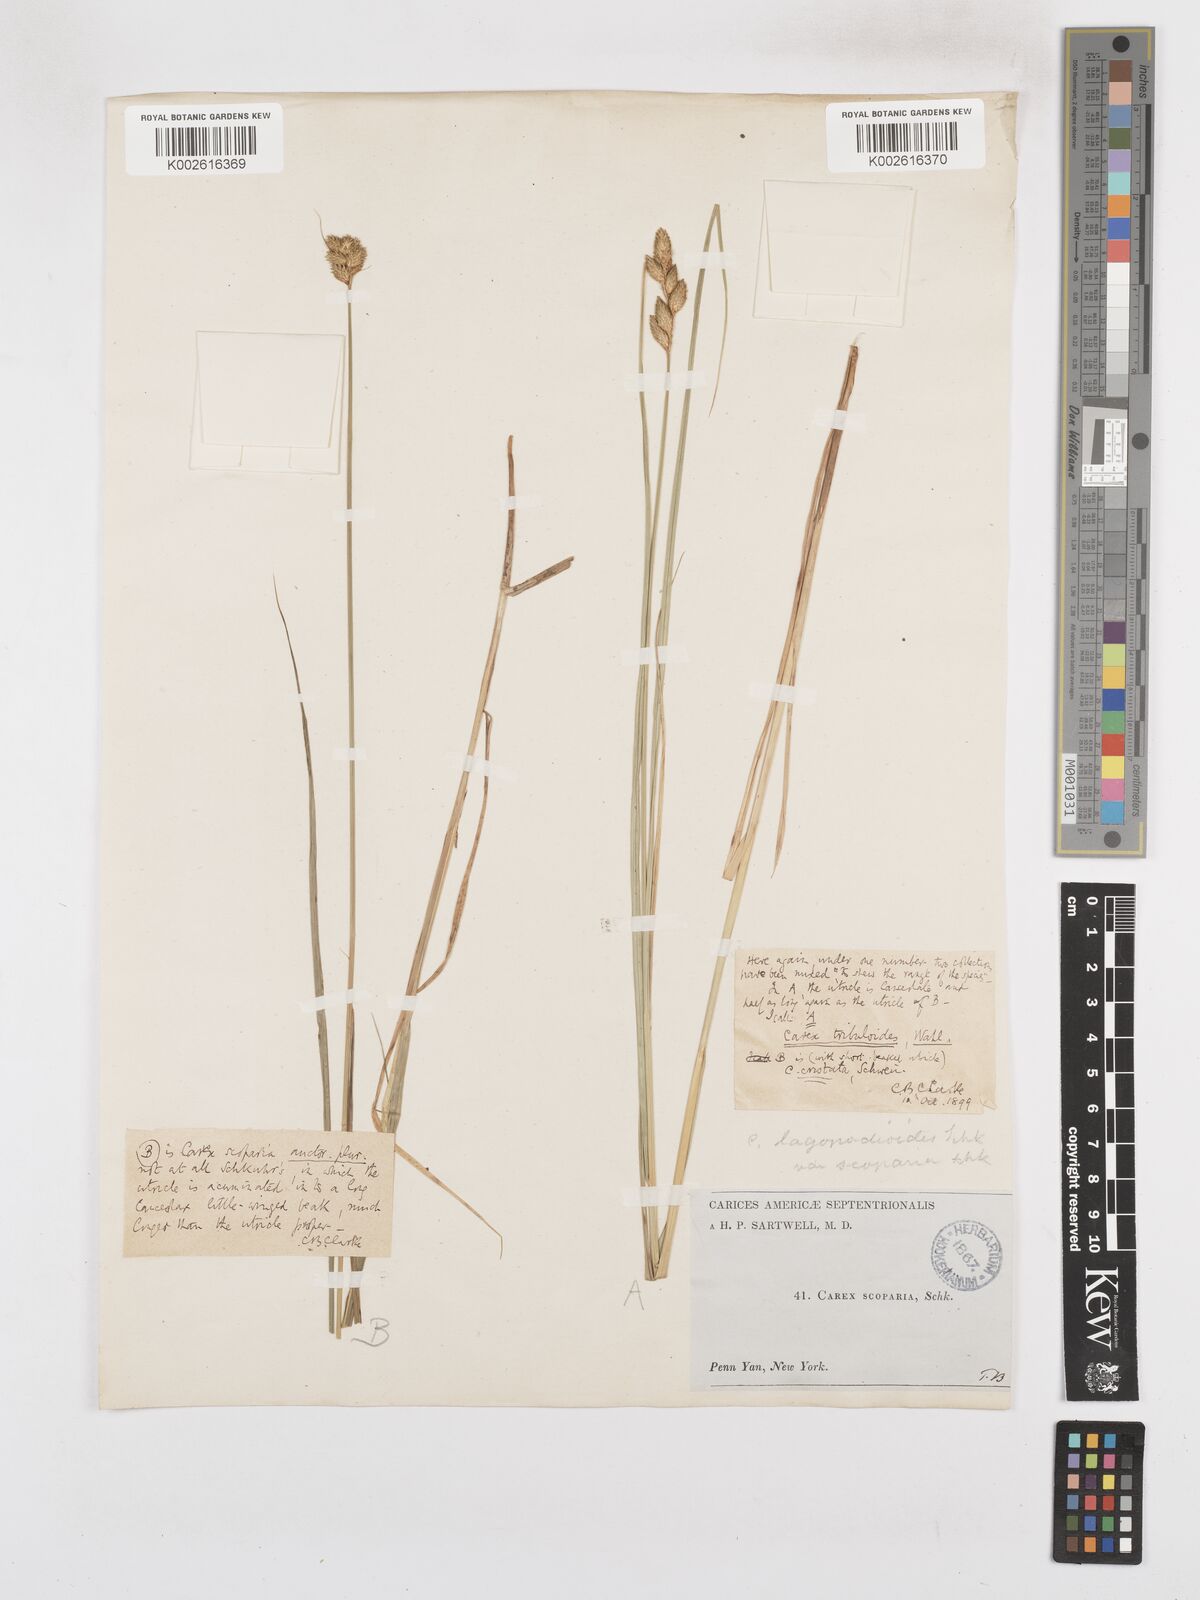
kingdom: Plantae
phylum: Tracheophyta
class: Liliopsida
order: Poales
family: Cyperaceae
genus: Carex
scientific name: Carex tribuloides
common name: Blunt broom sedge
